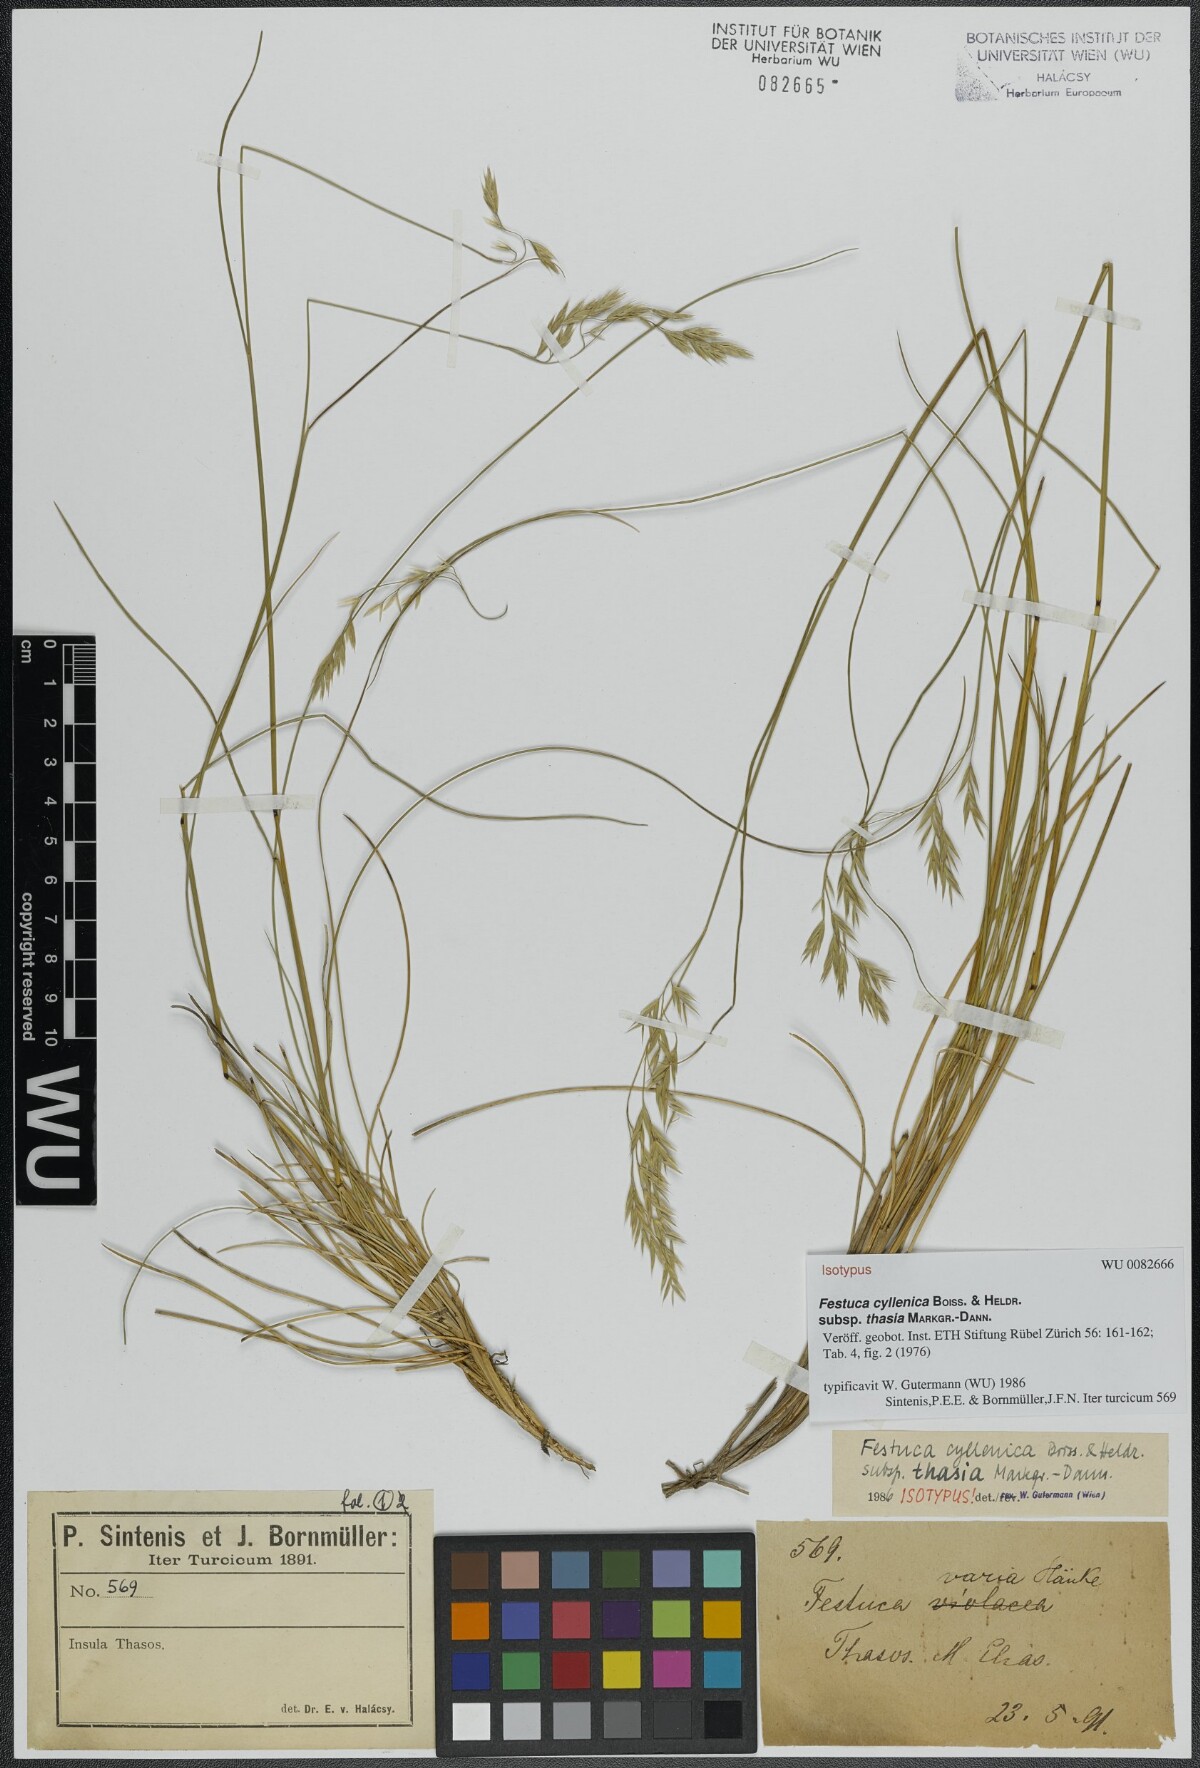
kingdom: Plantae
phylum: Tracheophyta
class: Liliopsida
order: Poales
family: Poaceae
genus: Festuca
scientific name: Festuca cyllenica
